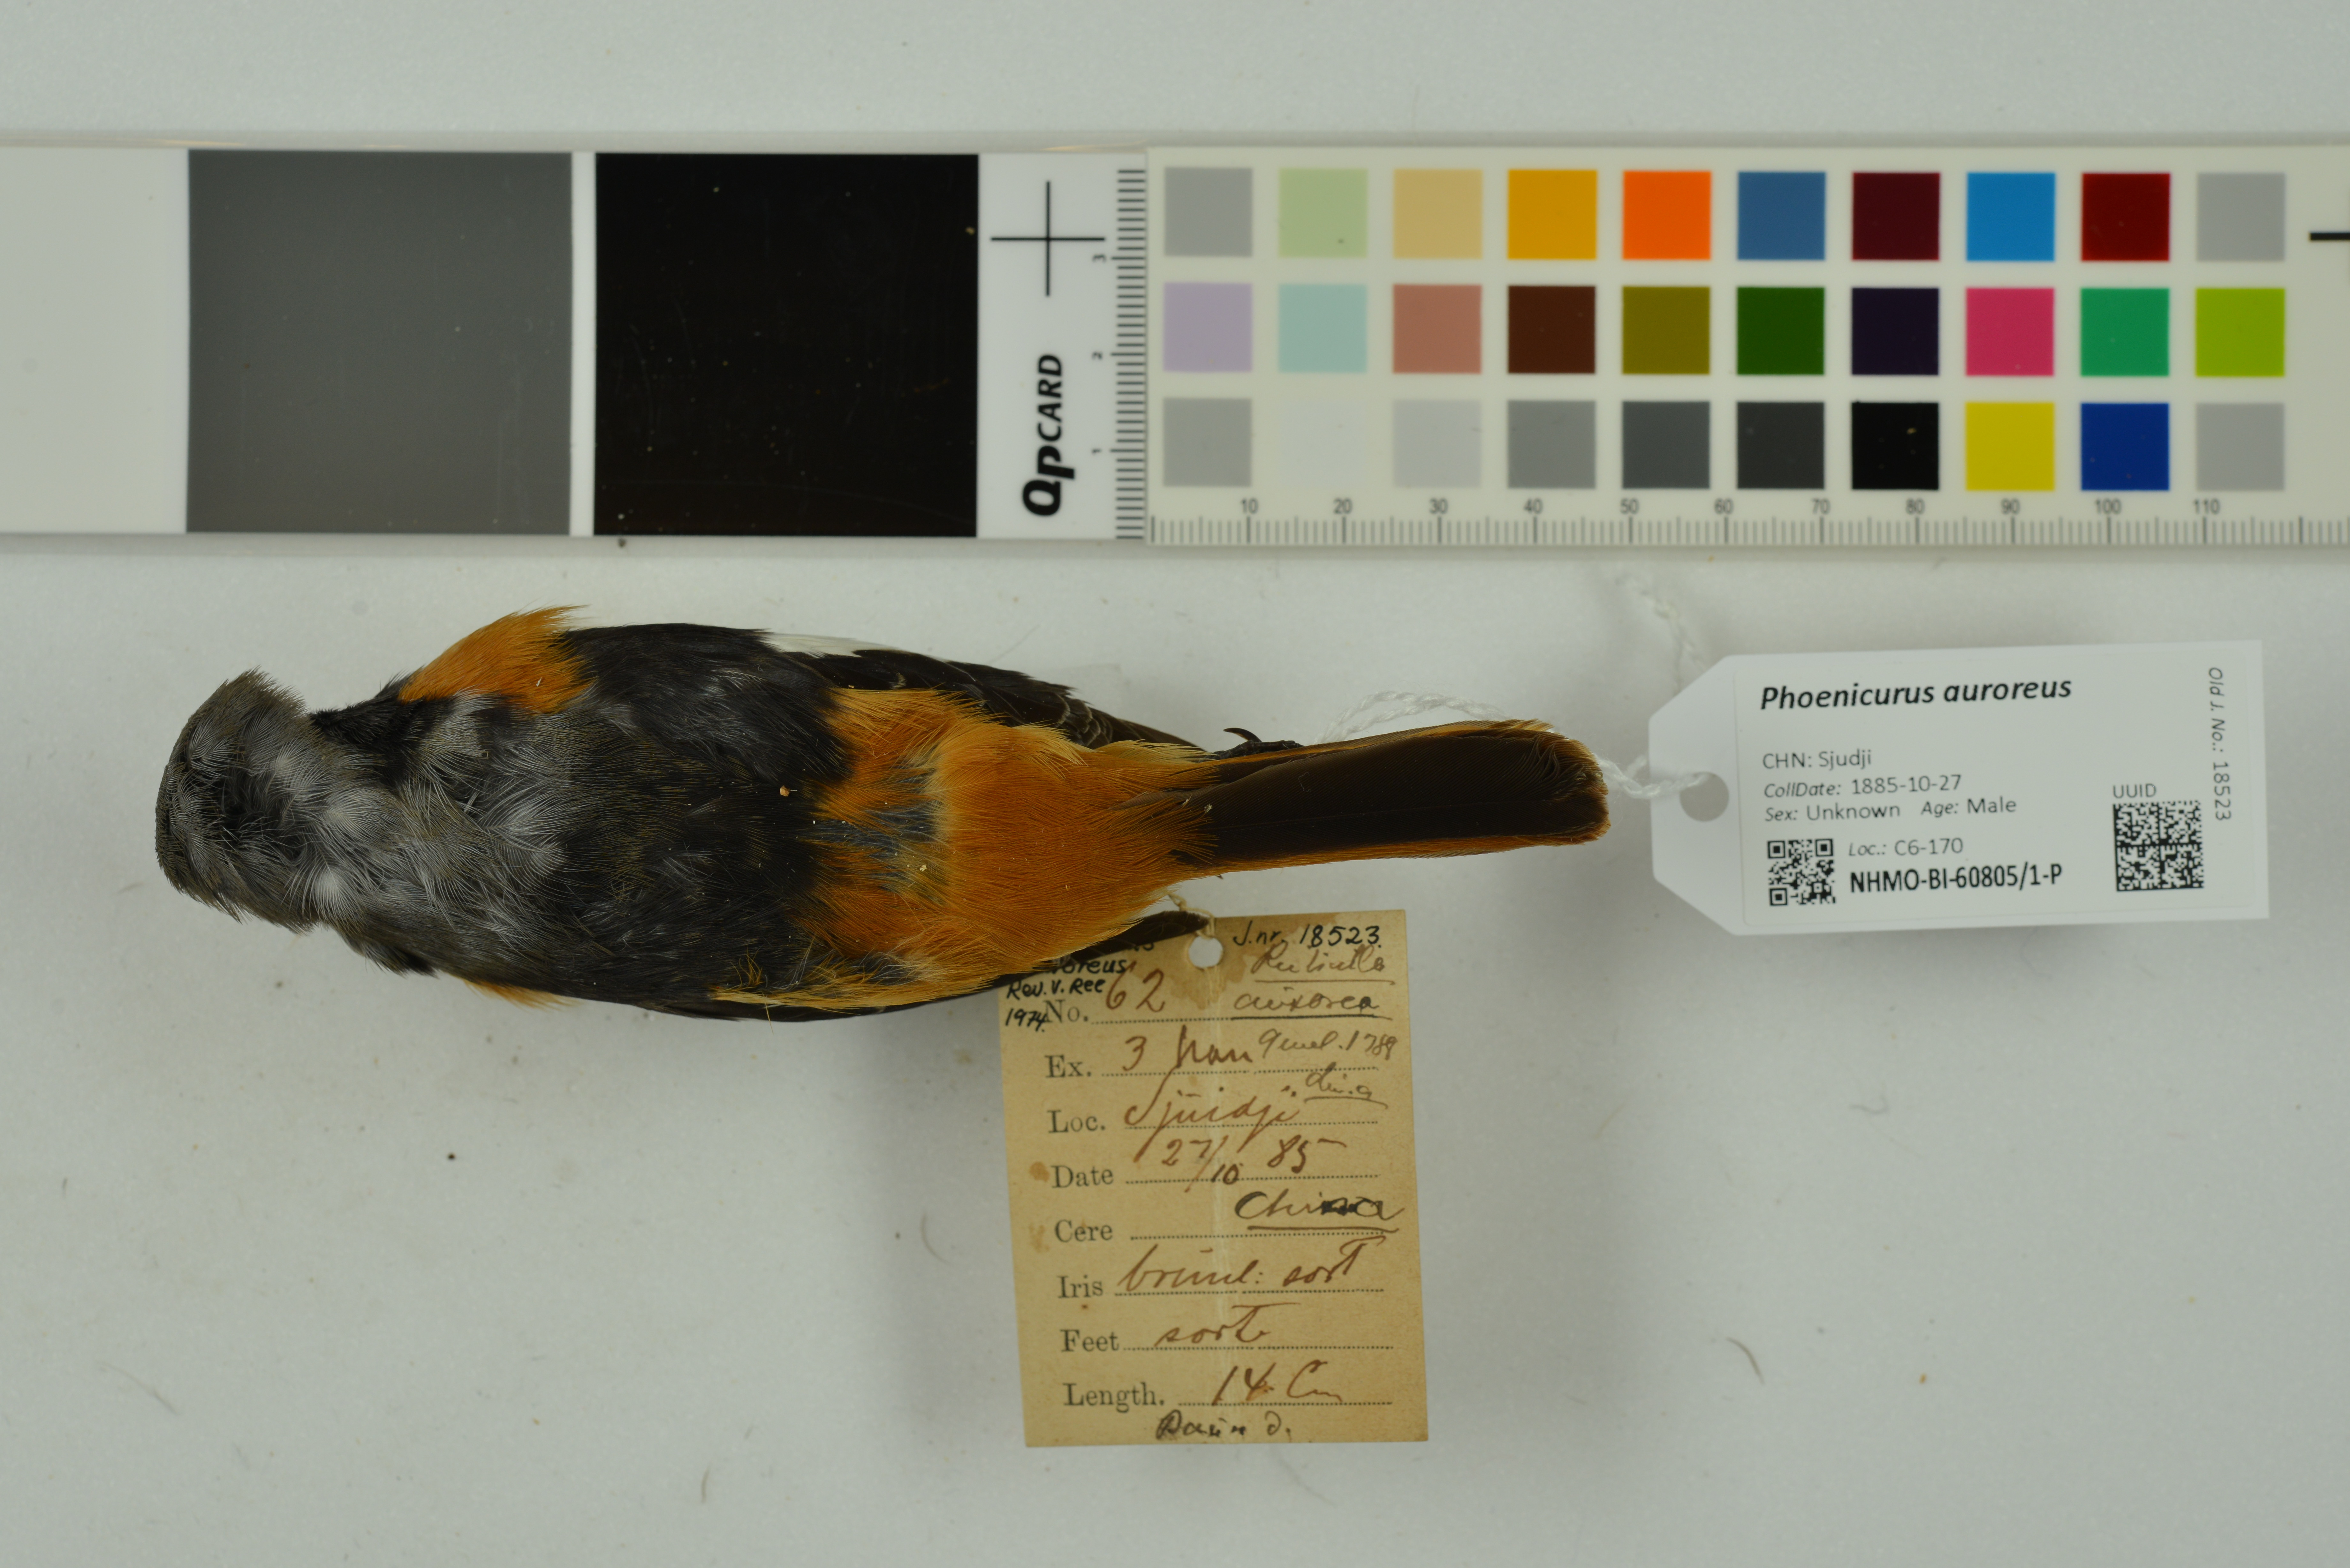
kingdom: Animalia
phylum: Chordata
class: Aves
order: Passeriformes
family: Muscicapidae
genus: Phoenicurus
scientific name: Phoenicurus auroreus
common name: Daurian redstart
